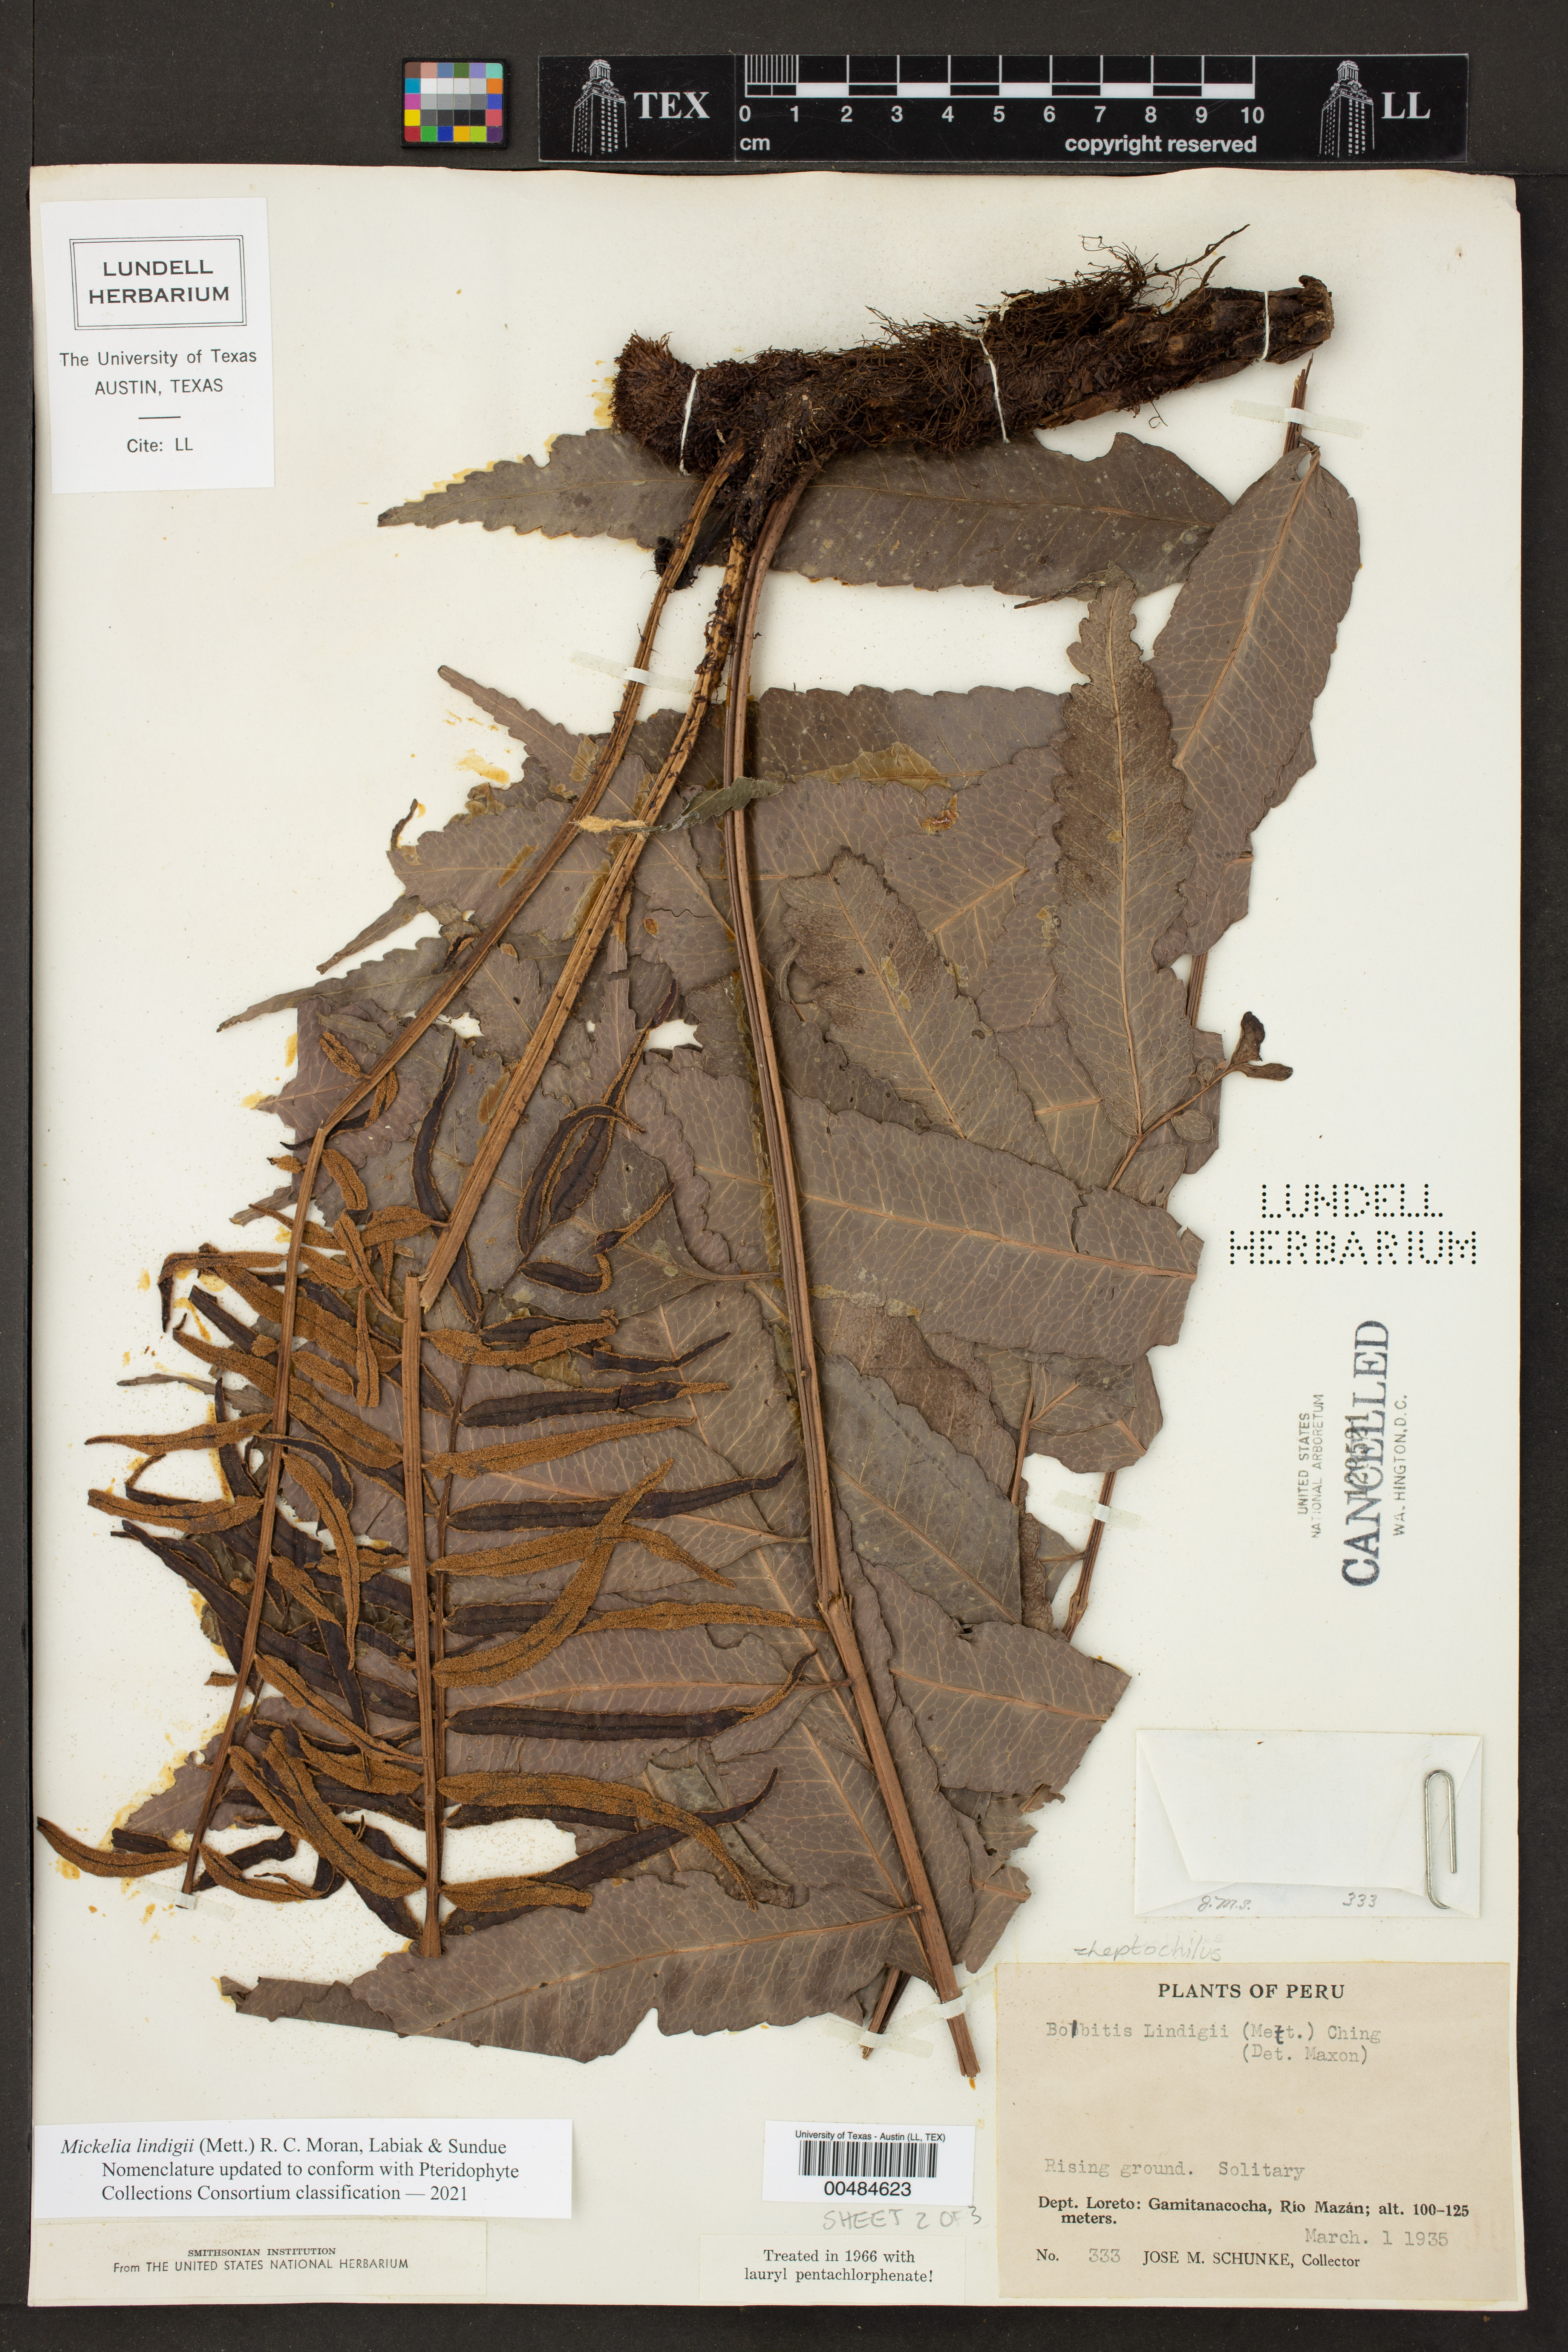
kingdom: Plantae
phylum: Tracheophyta
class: Polypodiopsida
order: Polypodiales
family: Dryopteridaceae
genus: Mickelia
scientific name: Mickelia lindigii
